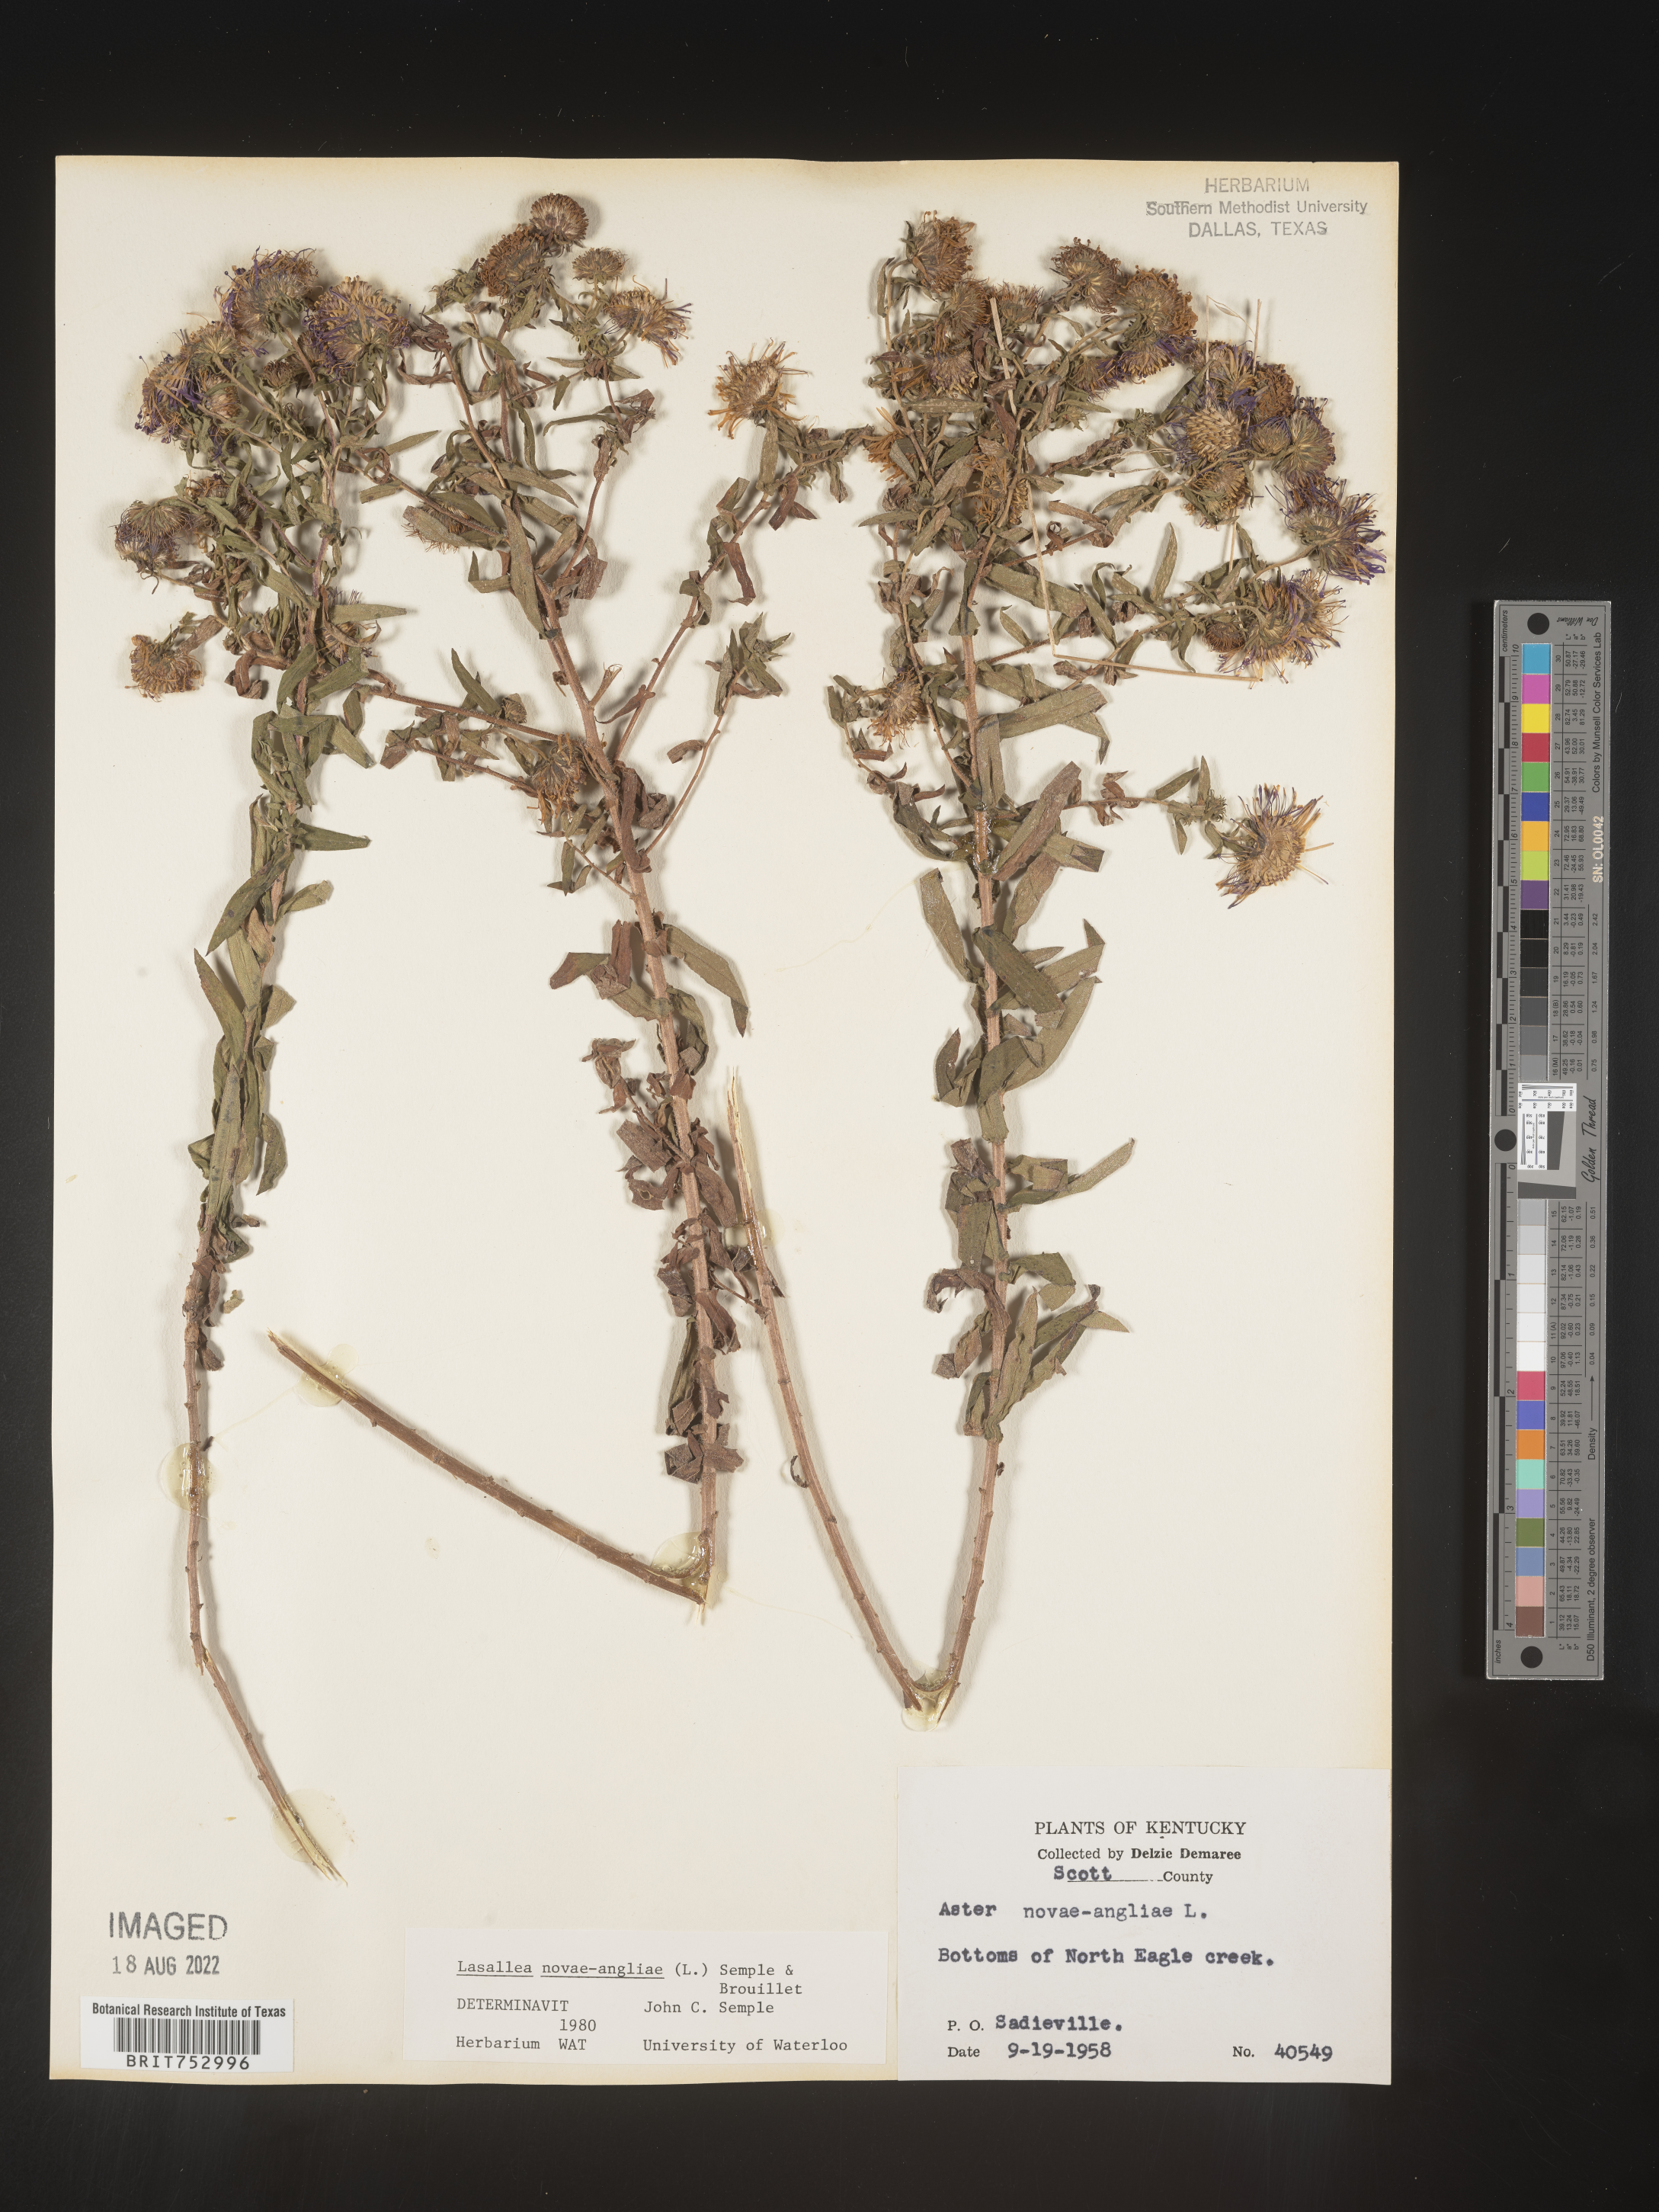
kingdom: Plantae
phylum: Tracheophyta
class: Magnoliopsida
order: Asterales
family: Asteraceae
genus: Symphyotrichum
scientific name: Symphyotrichum novae-angliae
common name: Michaelmas daisy
